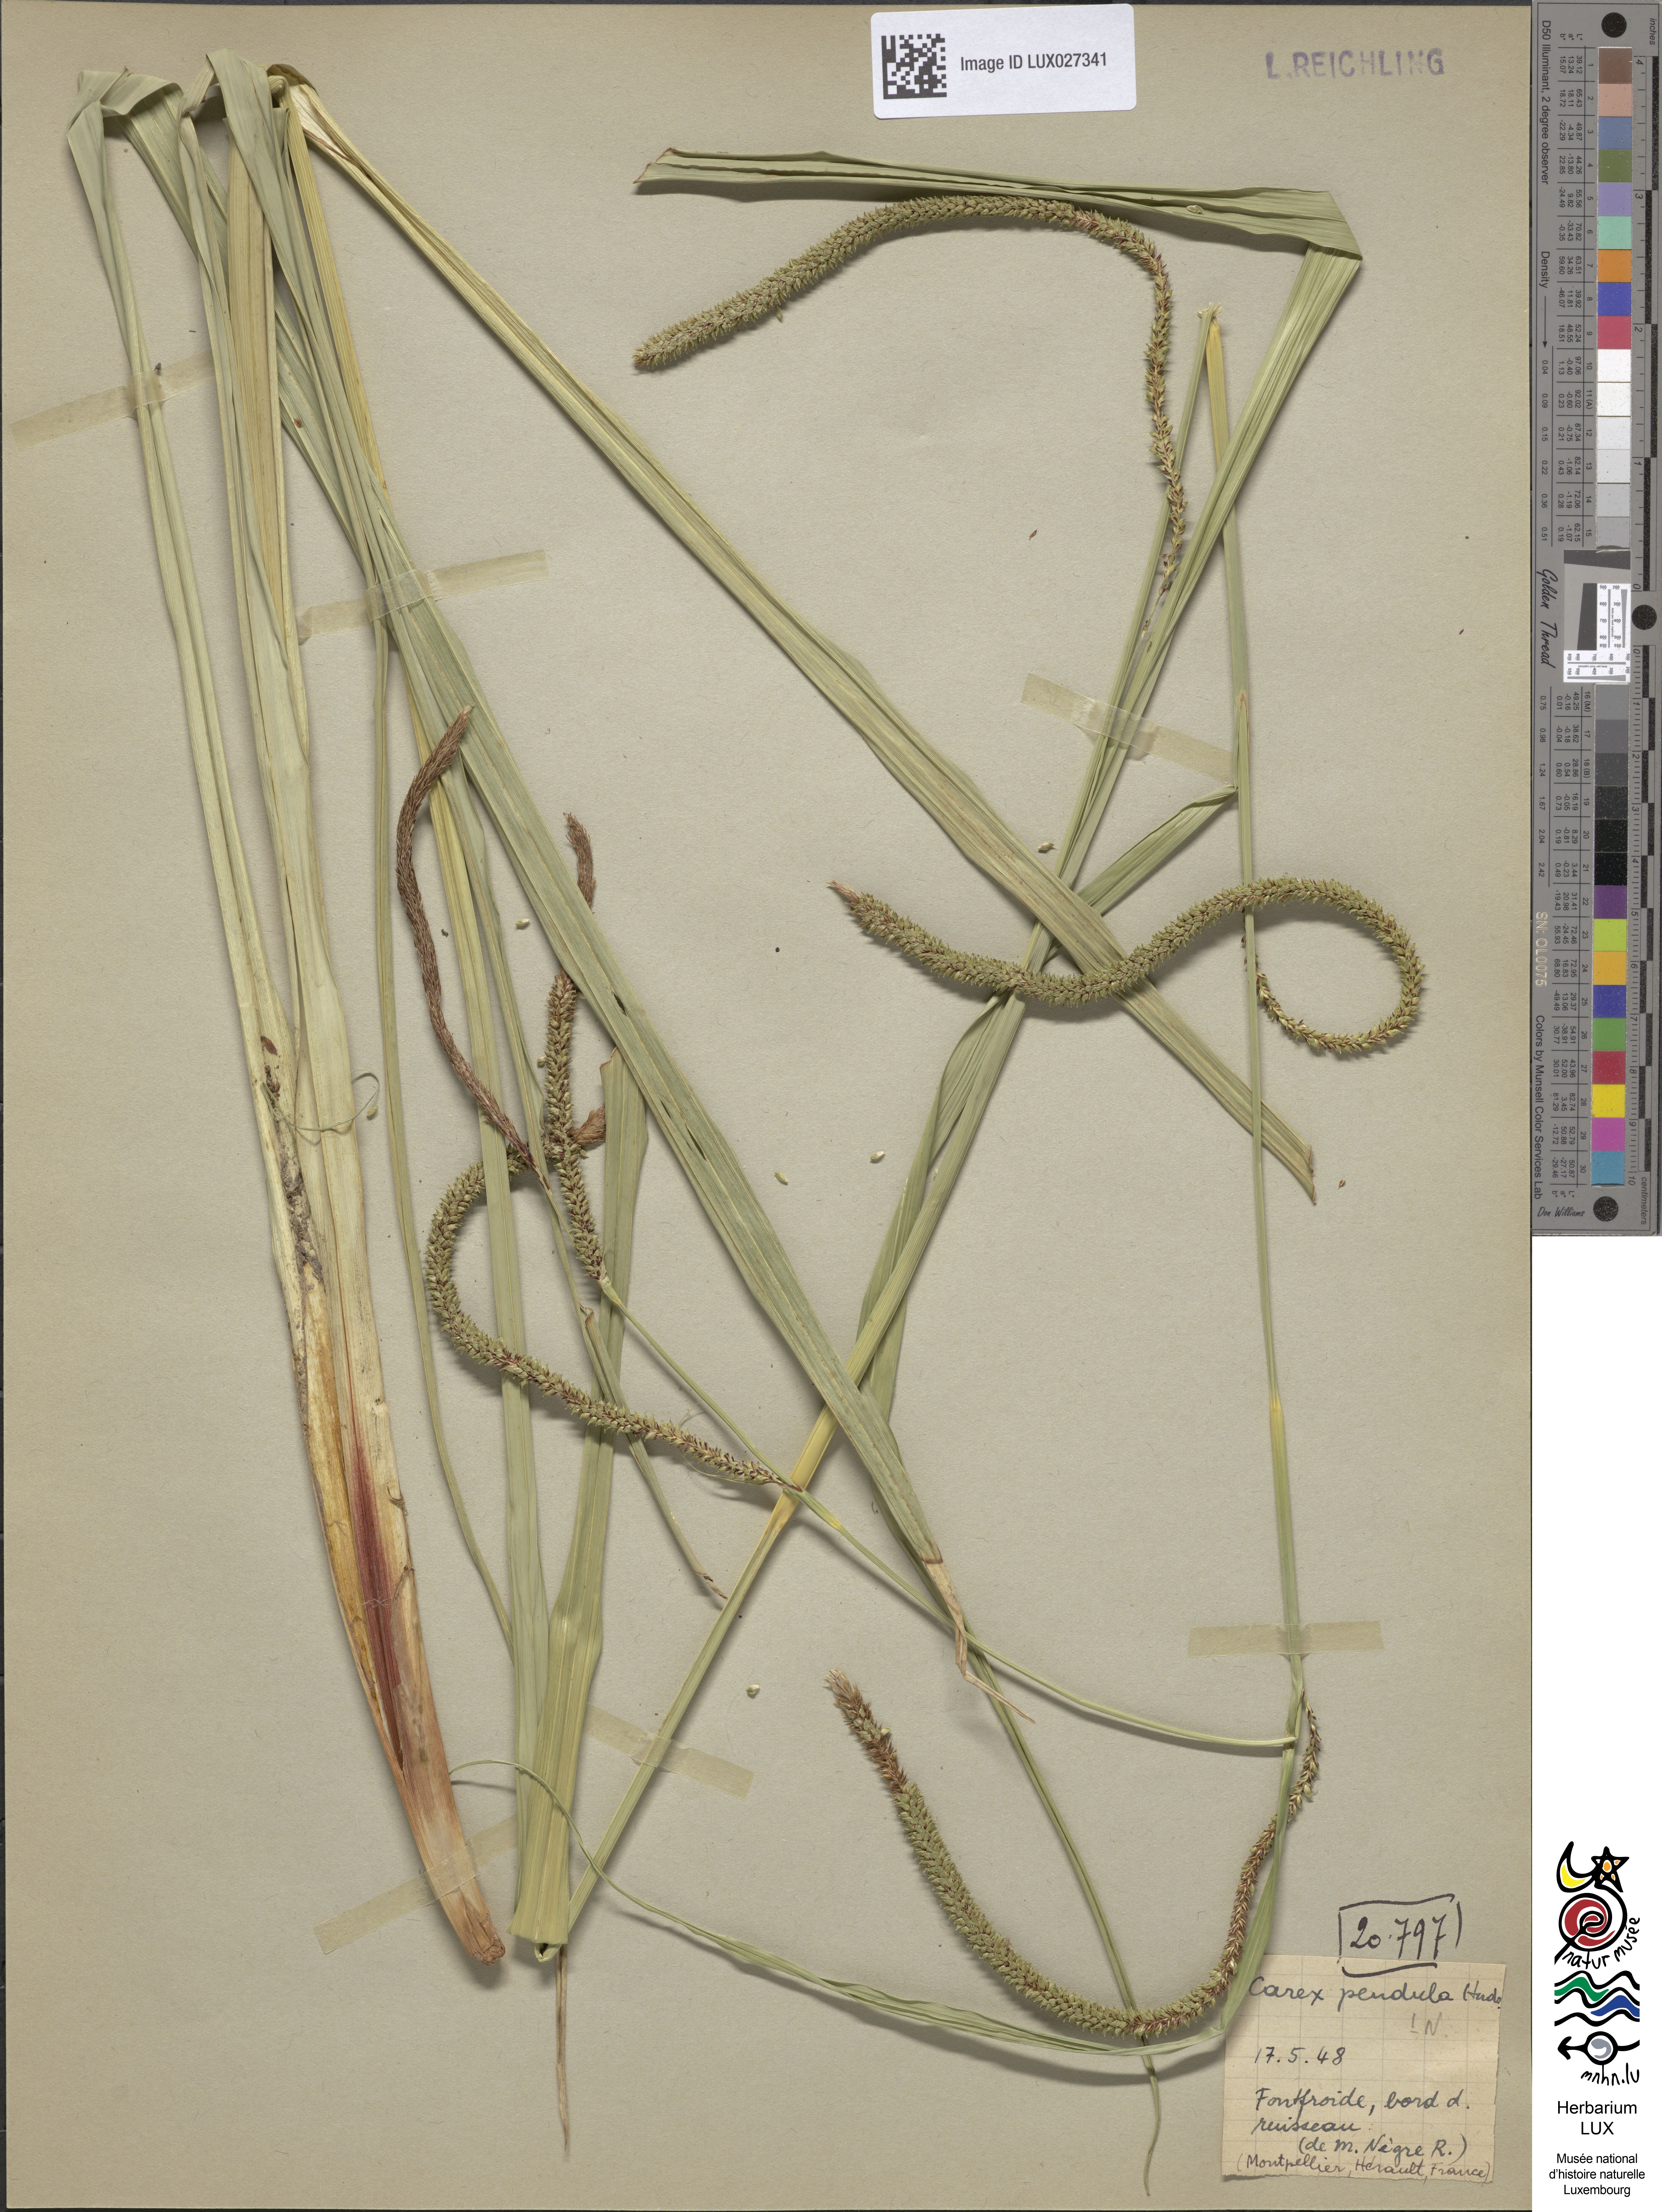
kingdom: Plantae
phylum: Tracheophyta
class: Liliopsida
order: Poales
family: Cyperaceae
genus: Carex
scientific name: Carex pendula
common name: Pendulous sedge
